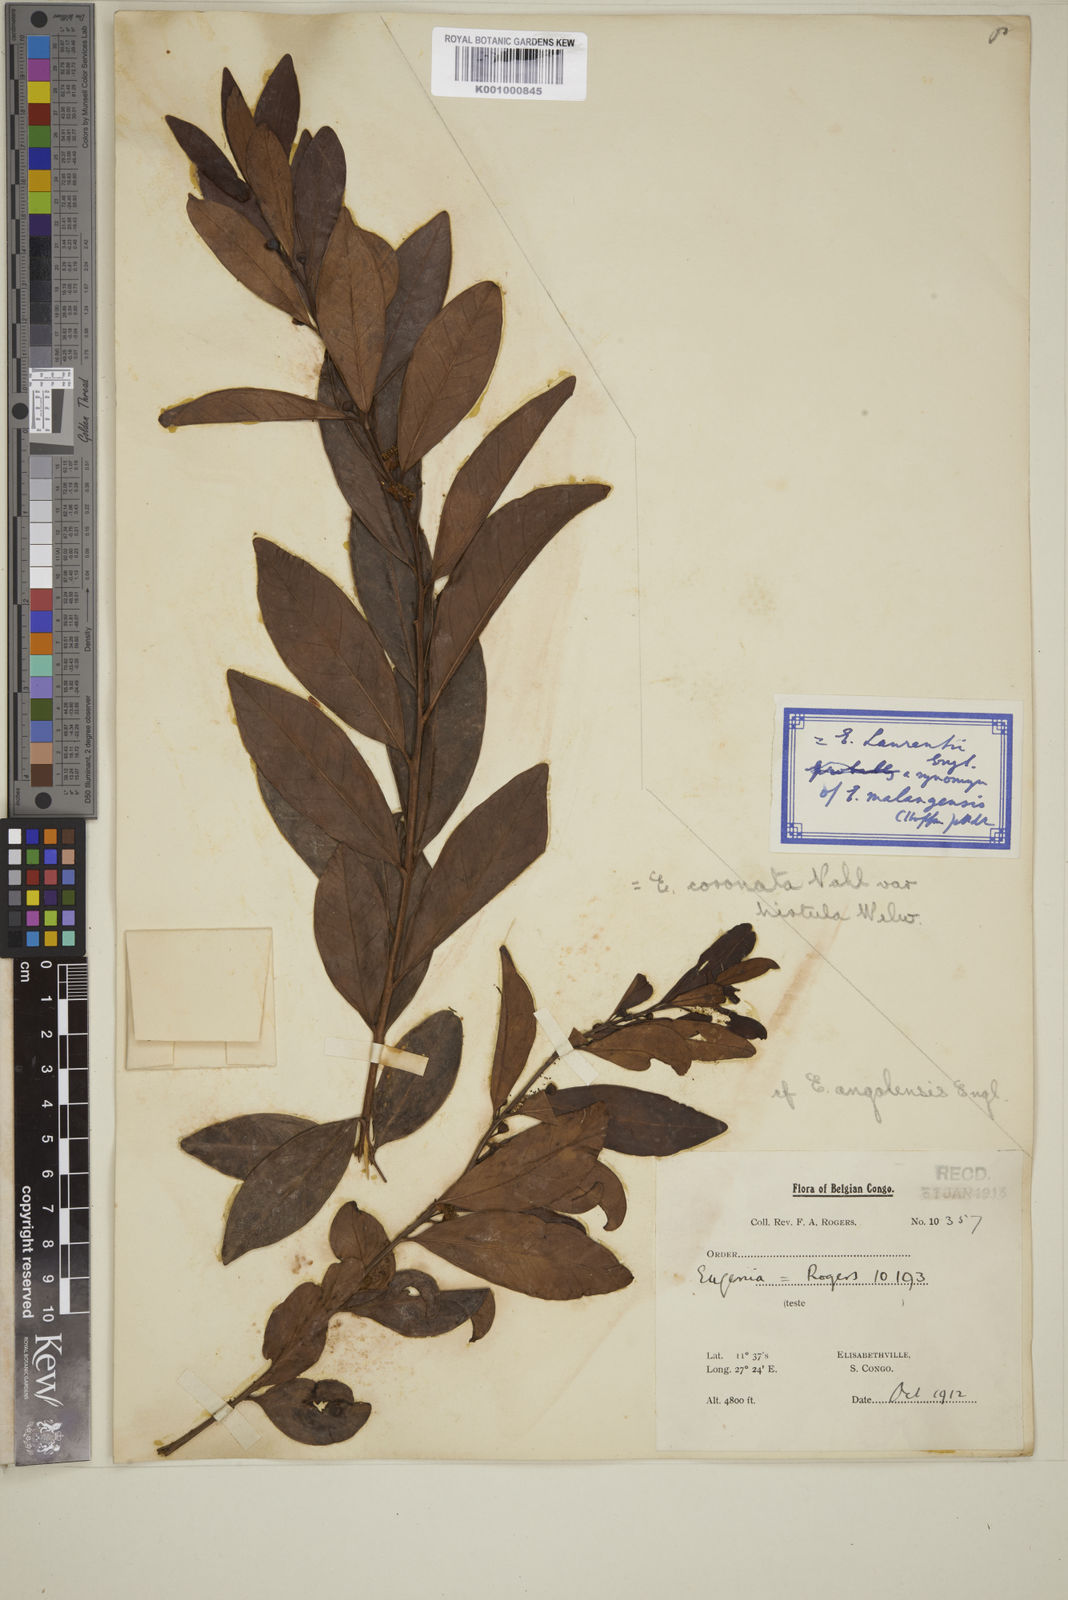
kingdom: Plantae
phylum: Tracheophyta
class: Magnoliopsida
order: Myrtales
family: Myrtaceae
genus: Eugenia
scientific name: Eugenia coronata
